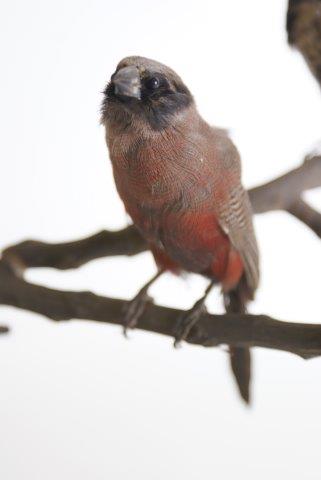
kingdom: Animalia
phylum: Chordata
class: Aves
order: Passeriformes
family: Estrildidae
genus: Erythrura
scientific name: Erythrura prasina
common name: Pin-tailed parrotfinch
